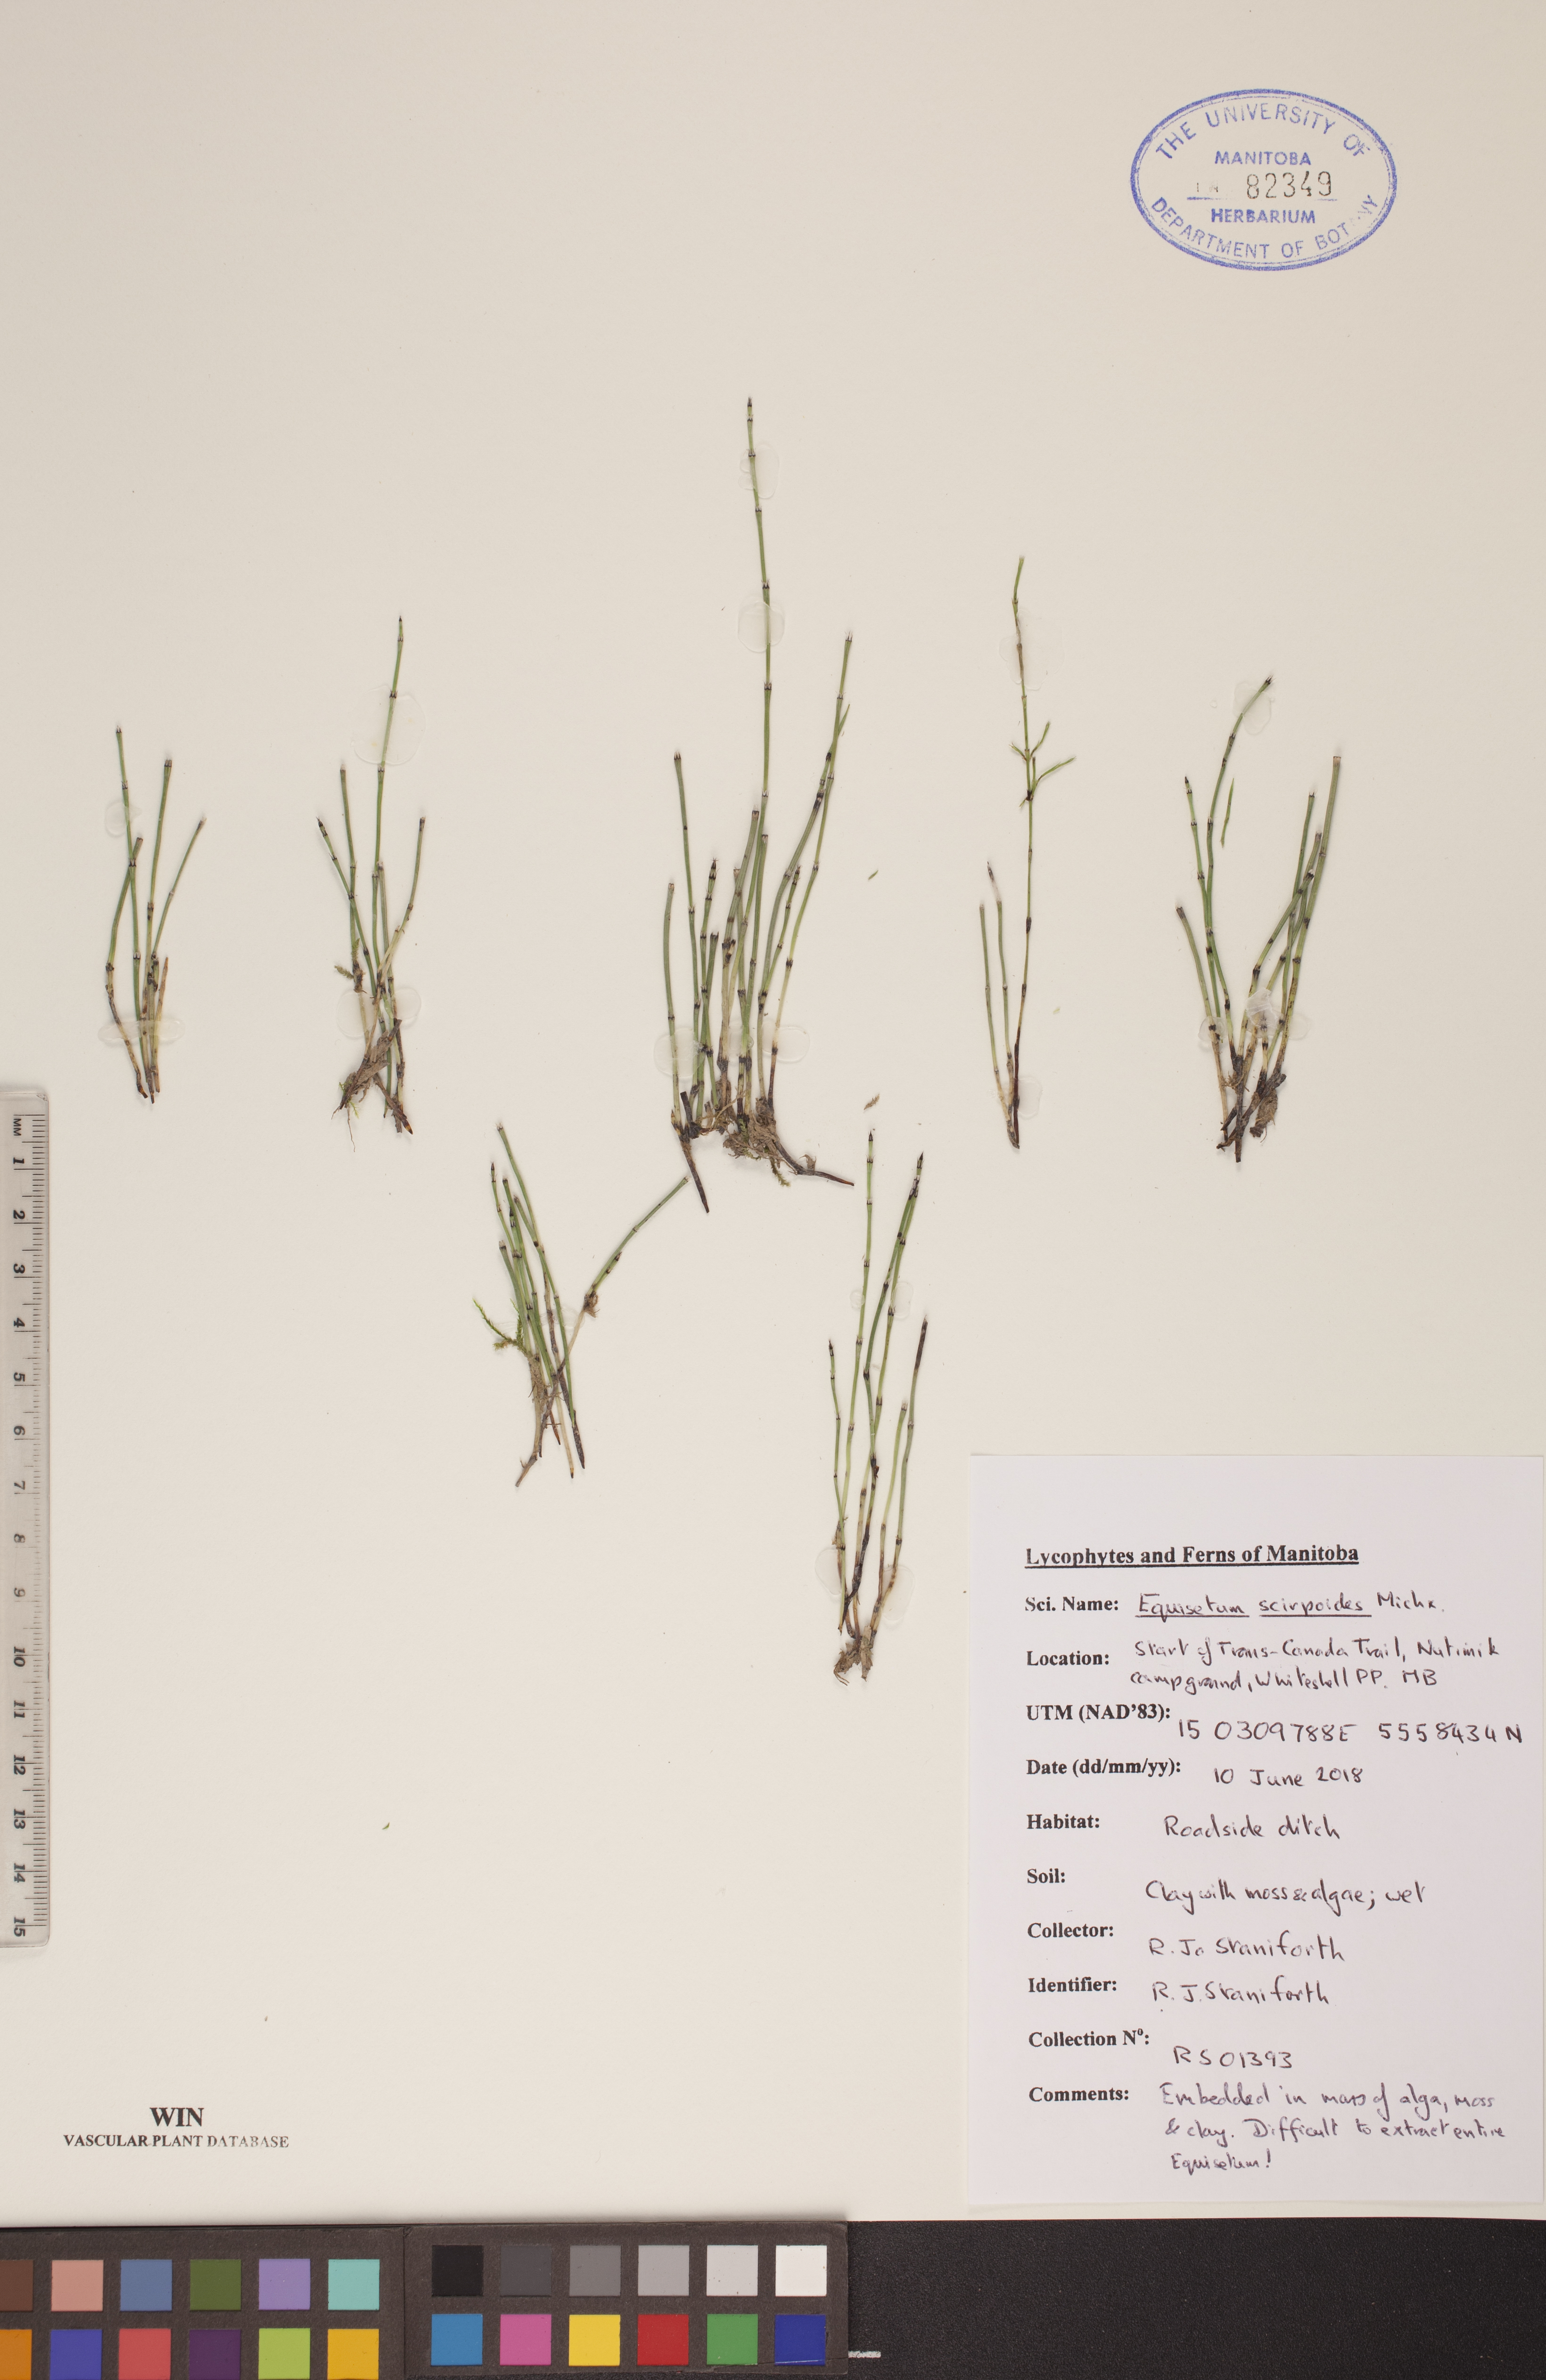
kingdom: Plantae
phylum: Tracheophyta
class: Polypodiopsida
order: Equisetales
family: Equisetaceae
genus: Equisetum
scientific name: Equisetum scirpoides
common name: Delicate horsetail
